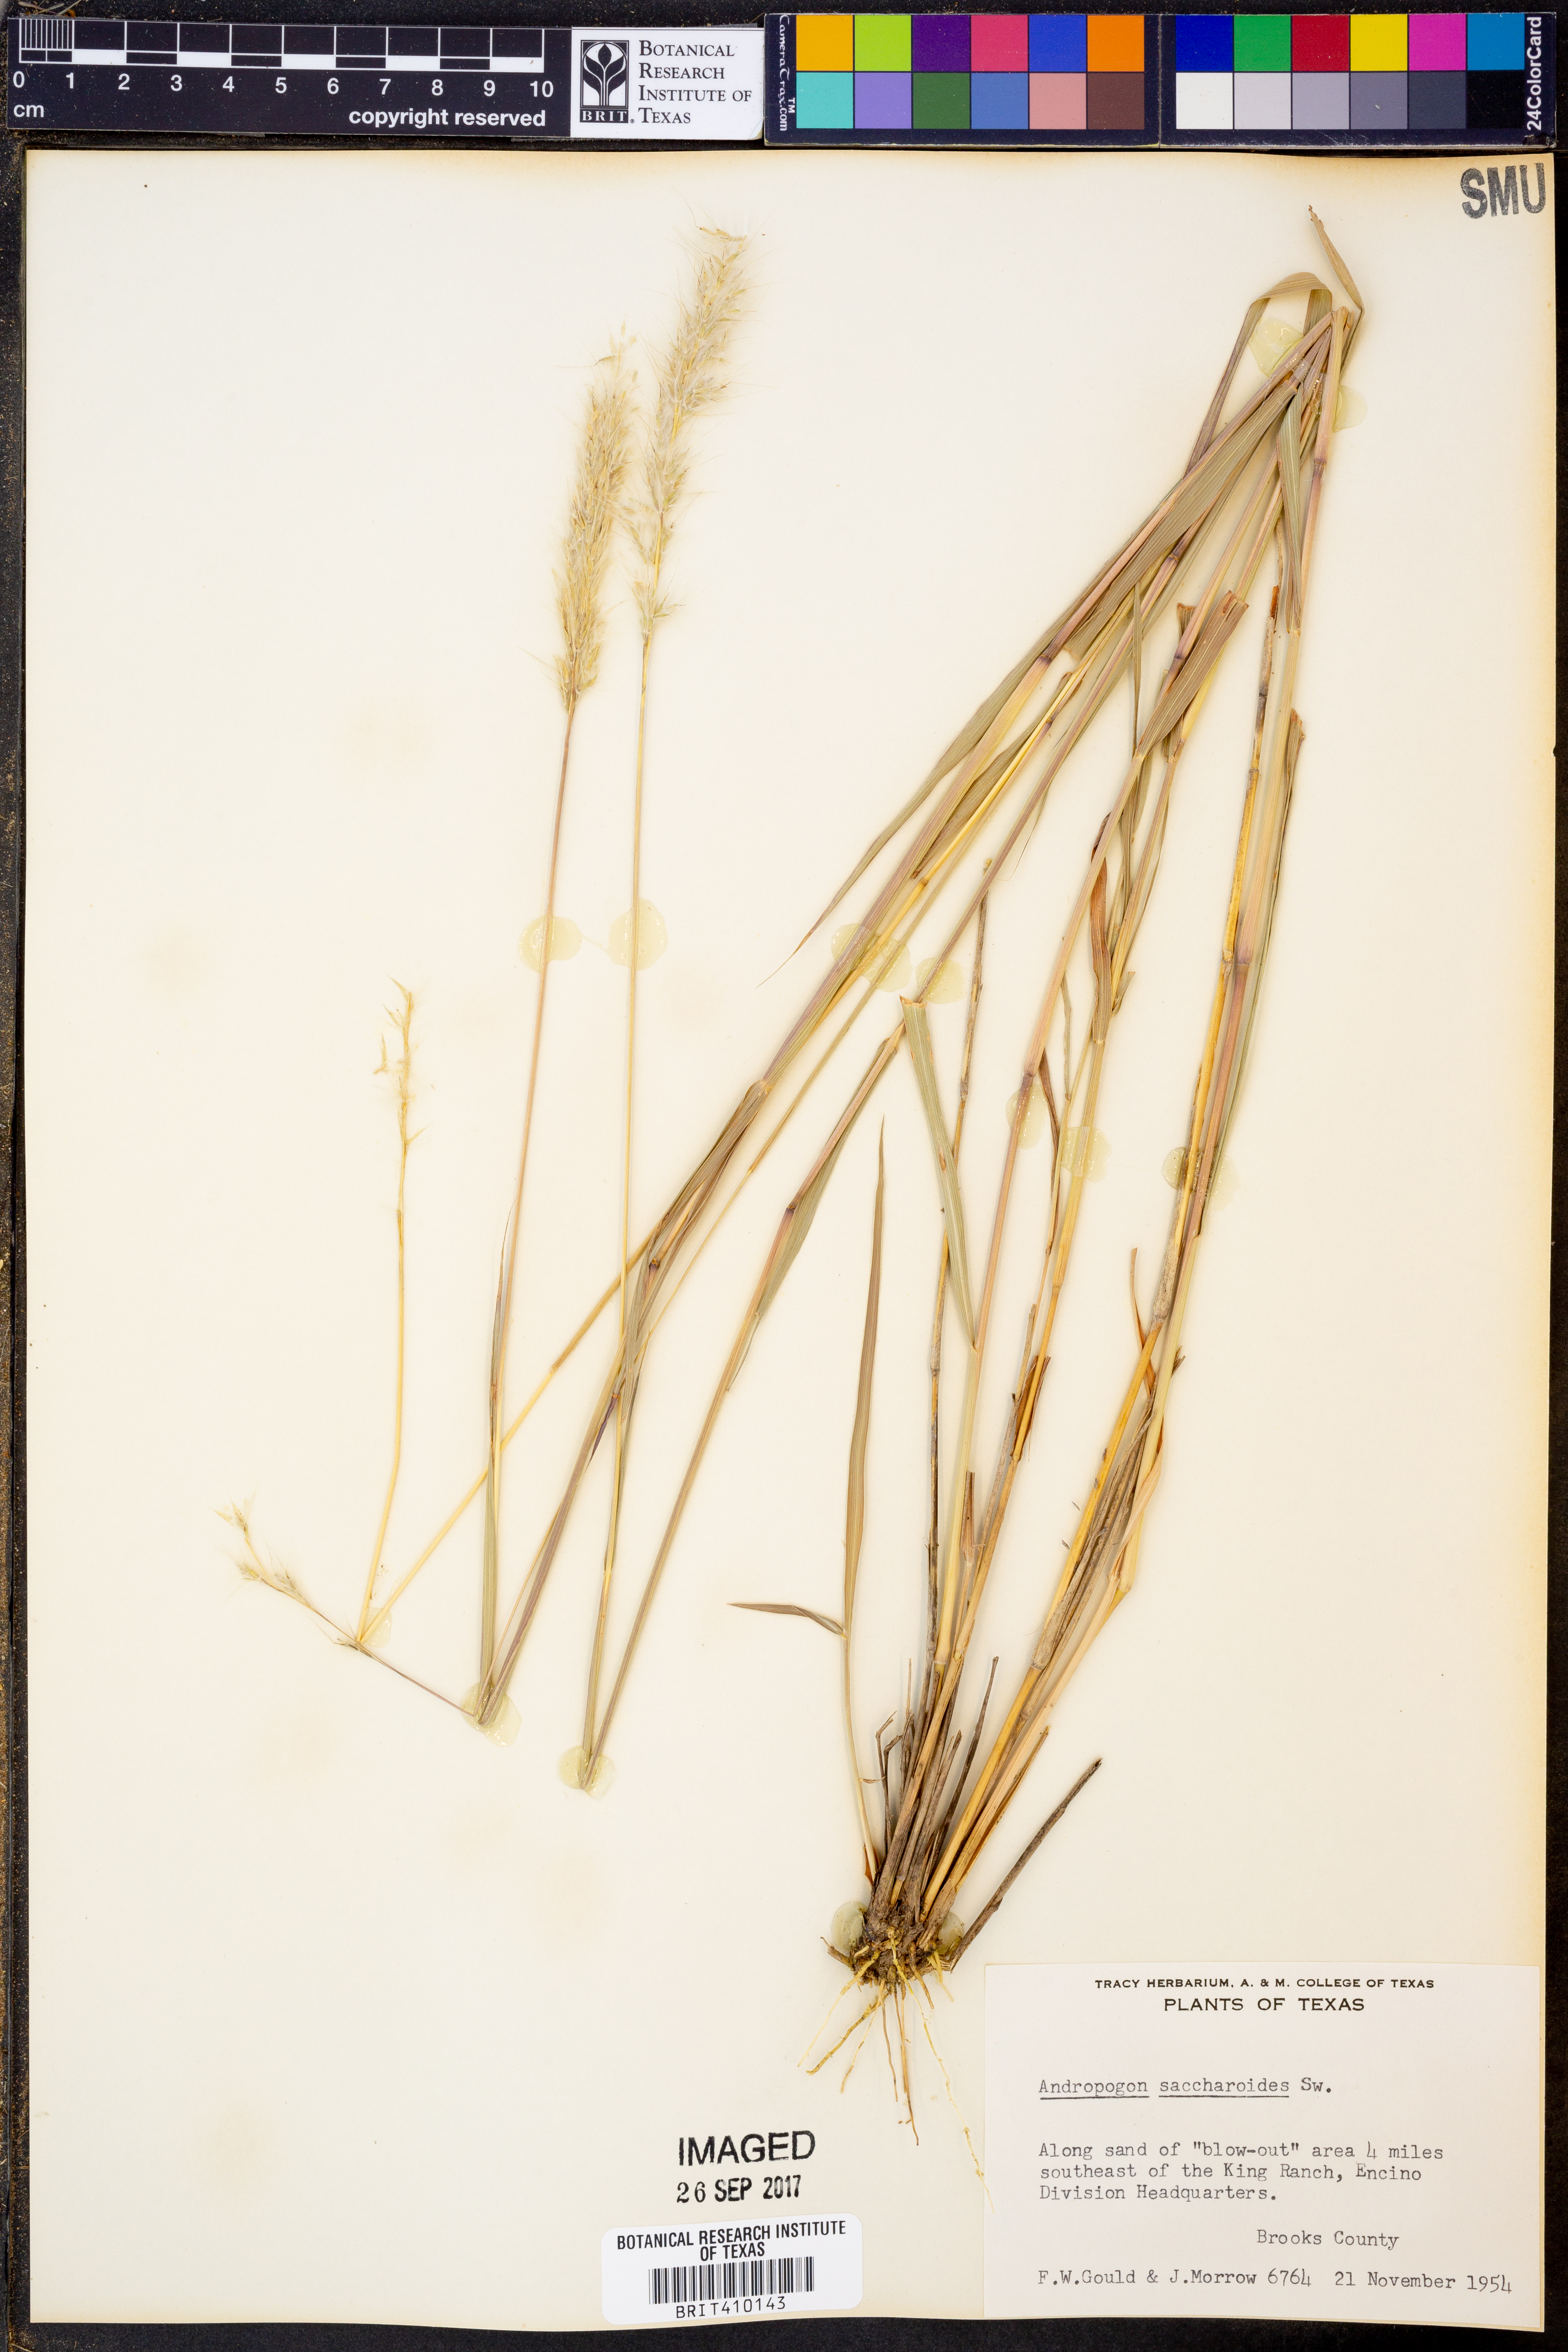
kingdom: Plantae
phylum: Tracheophyta
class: Liliopsida
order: Poales
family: Poaceae
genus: Bothriochloa
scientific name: Bothriochloa saccharoides
